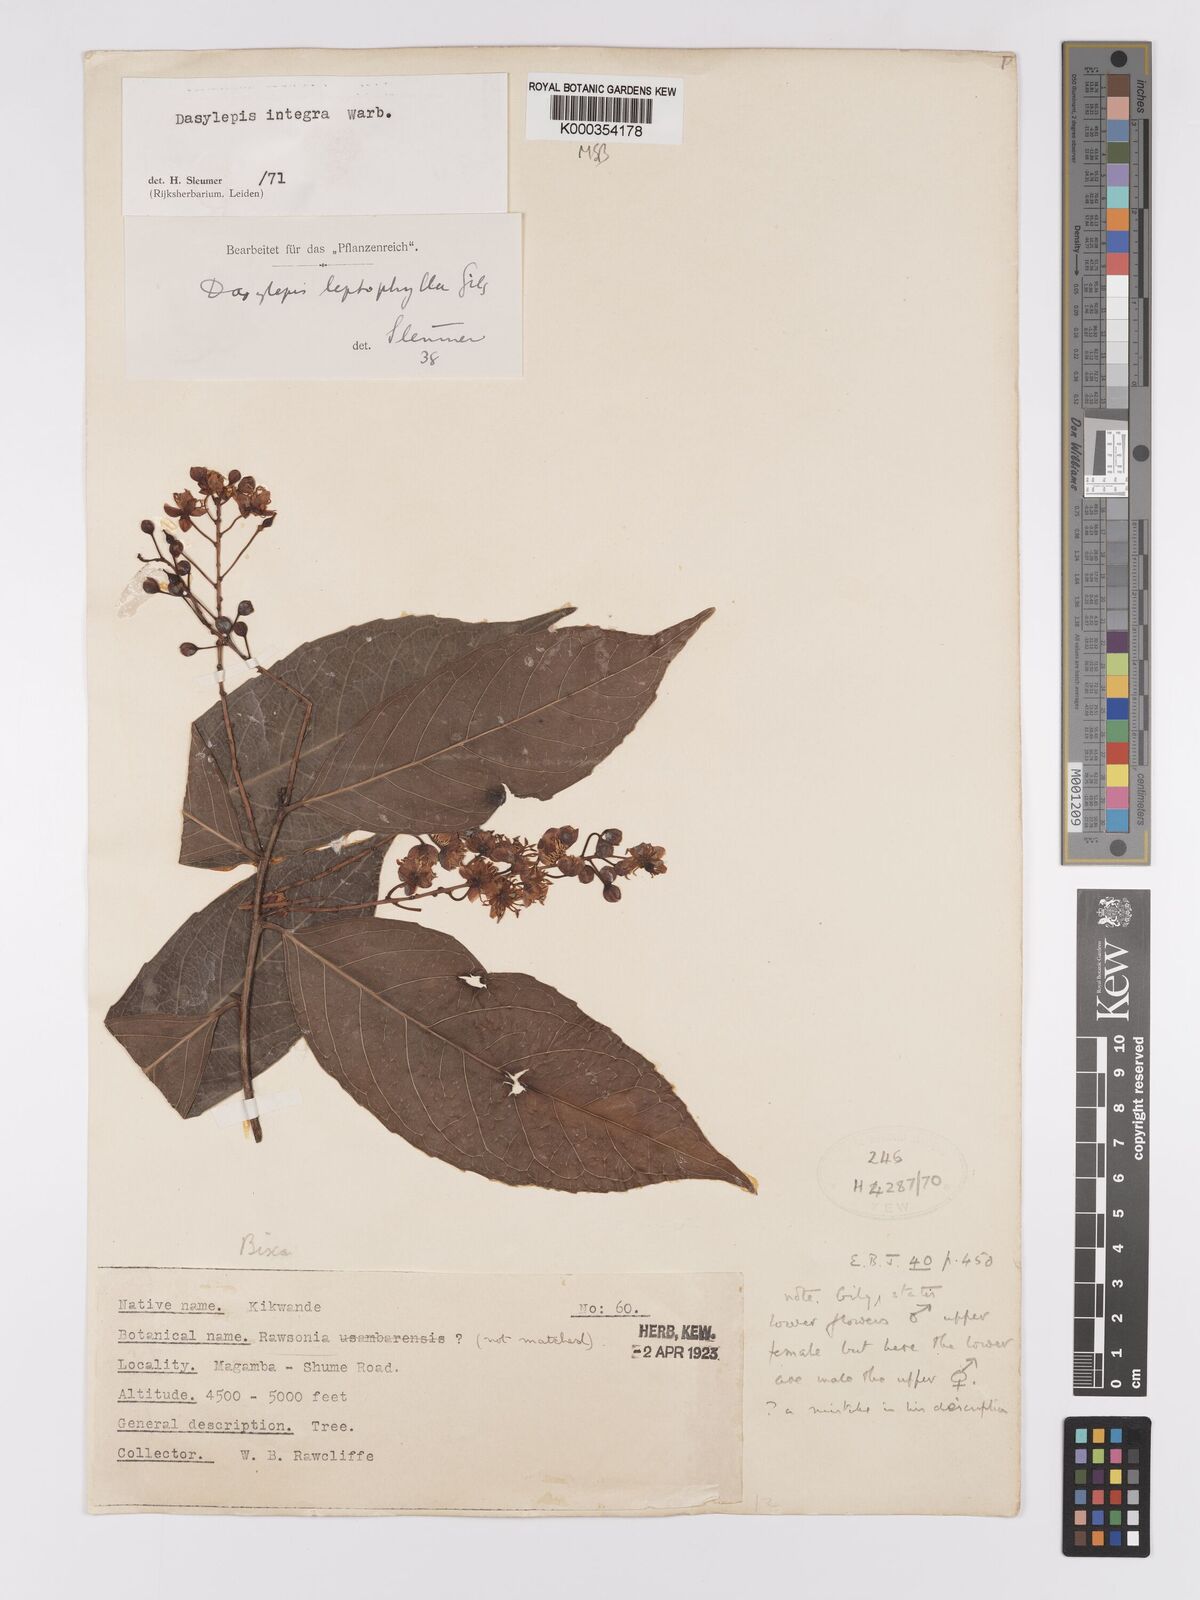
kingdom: Plantae
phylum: Tracheophyta
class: Magnoliopsida
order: Malpighiales
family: Achariaceae
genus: Dasylepis
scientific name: Dasylepis integra
